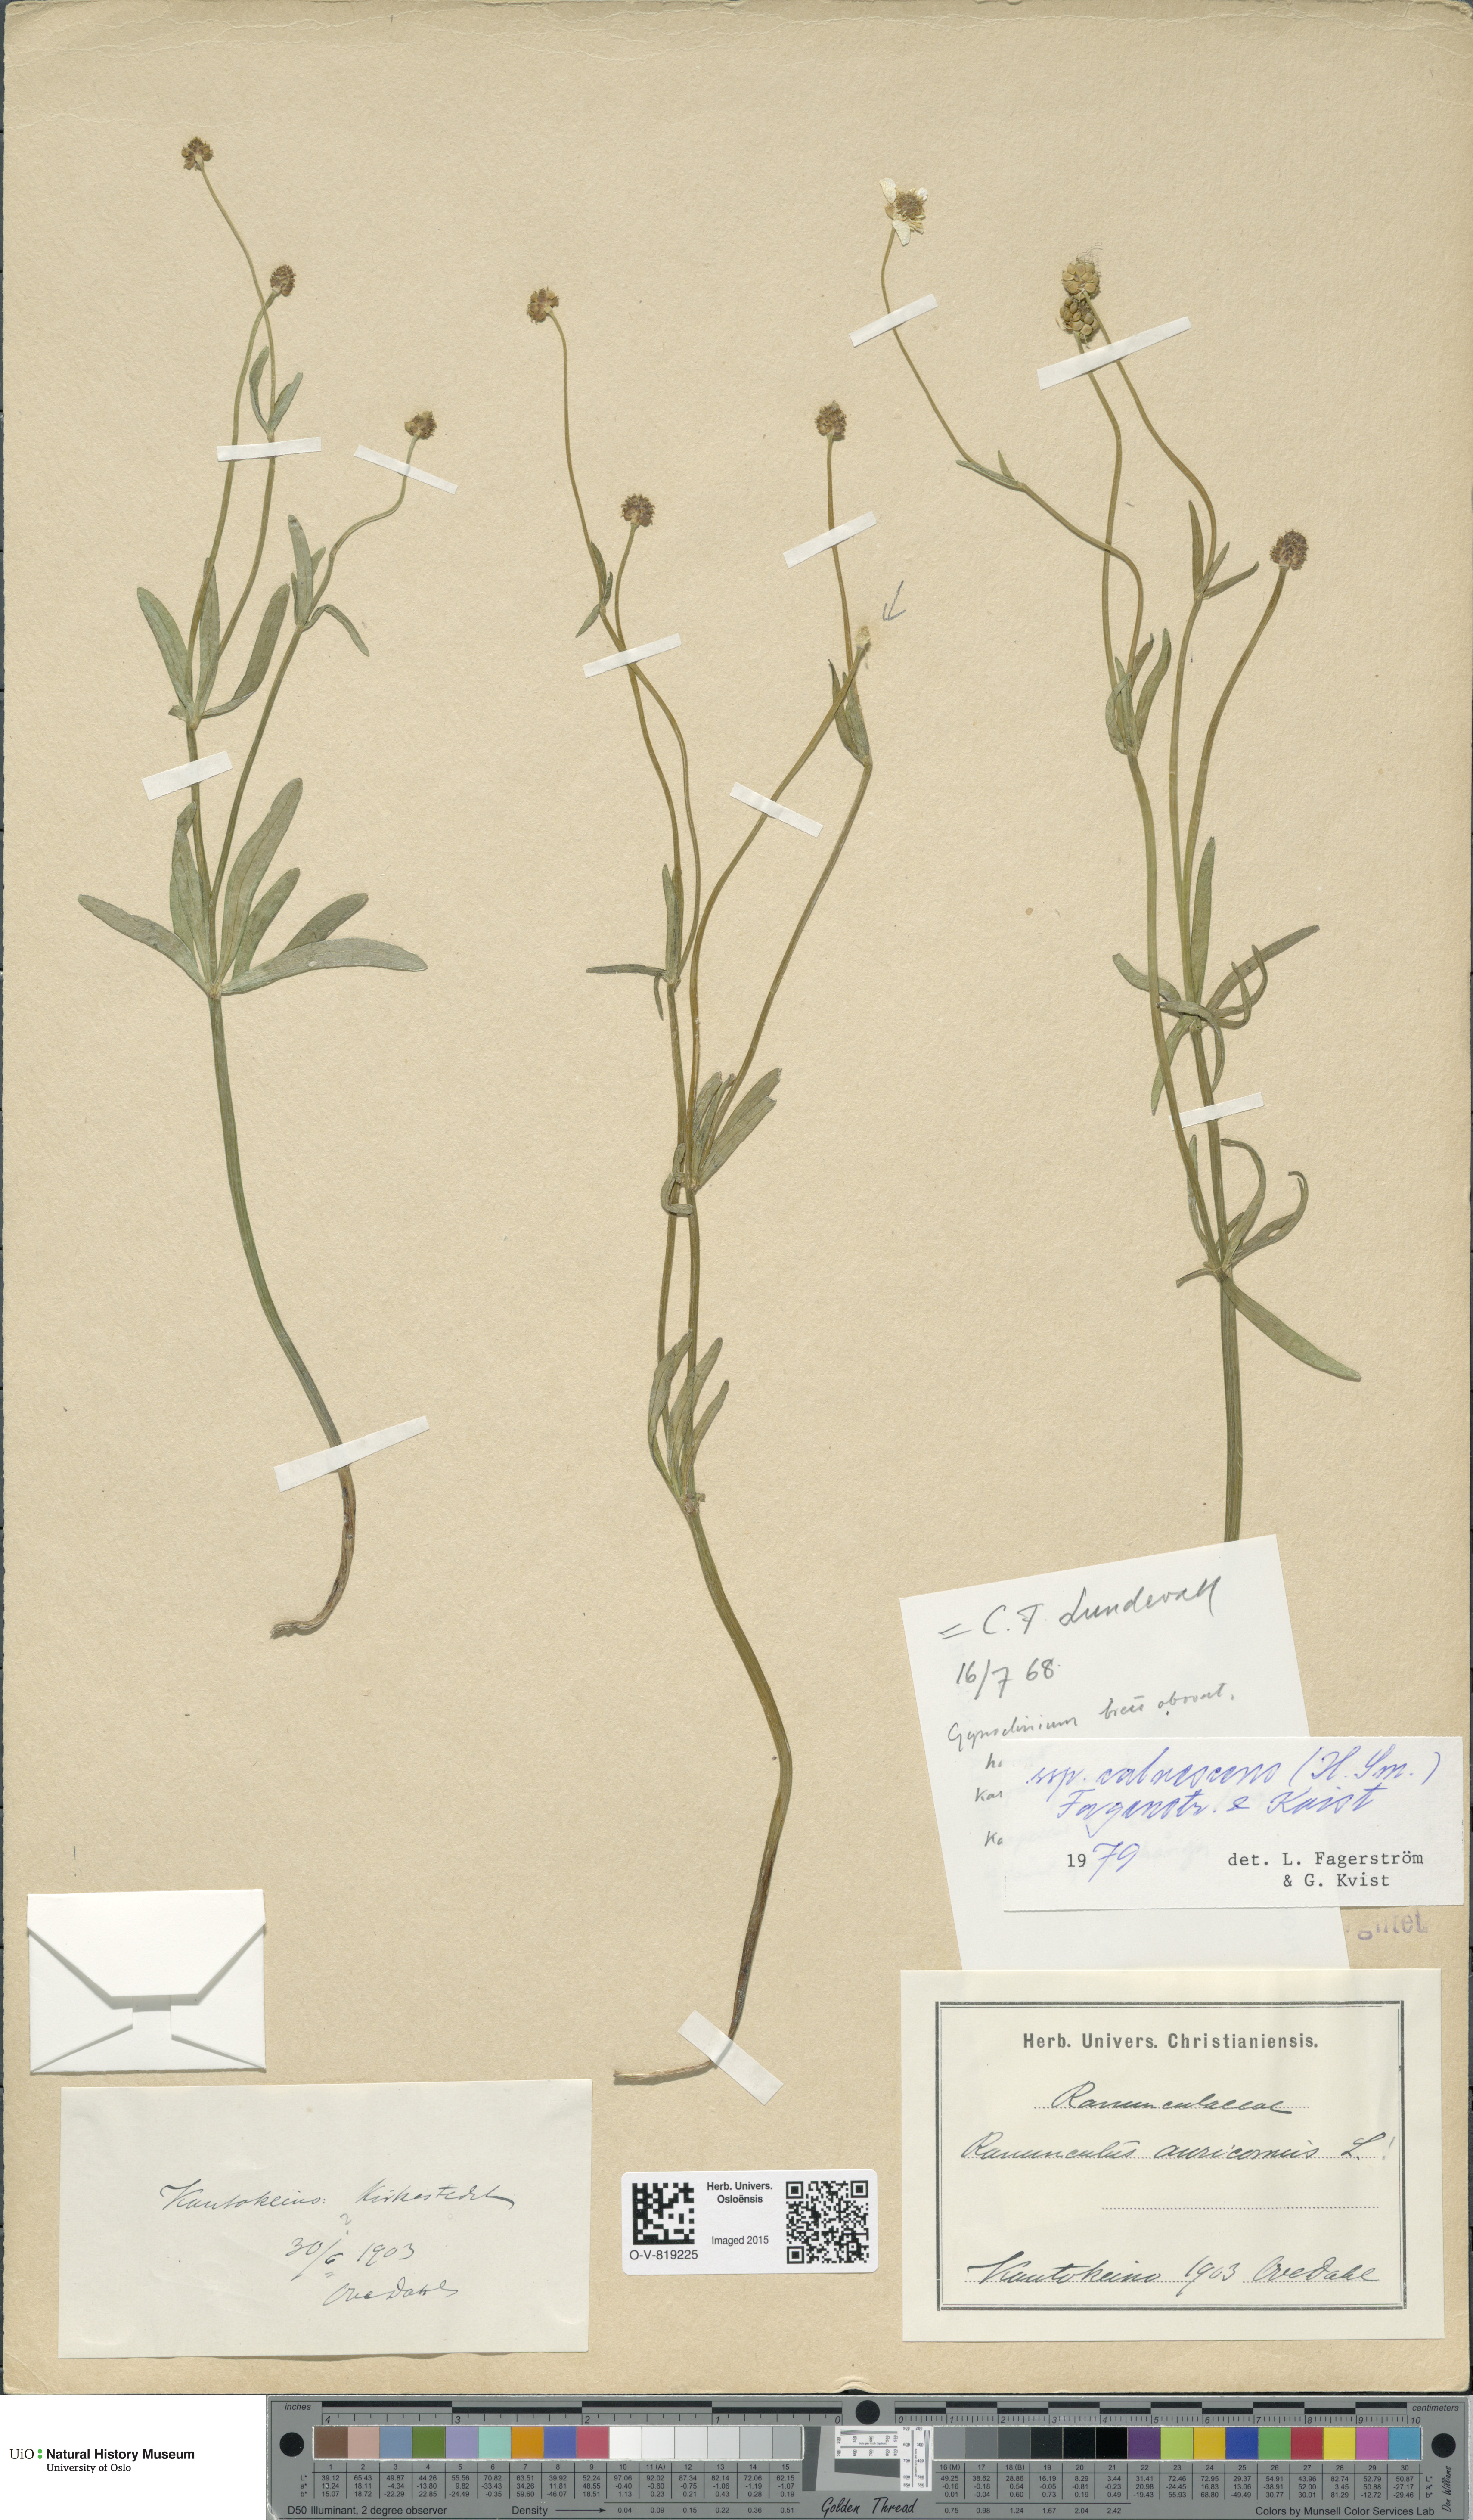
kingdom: Plantae
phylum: Tracheophyta
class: Magnoliopsida
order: Ranunculales
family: Ranunculaceae
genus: Ranunculus
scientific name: Ranunculus calvescens
